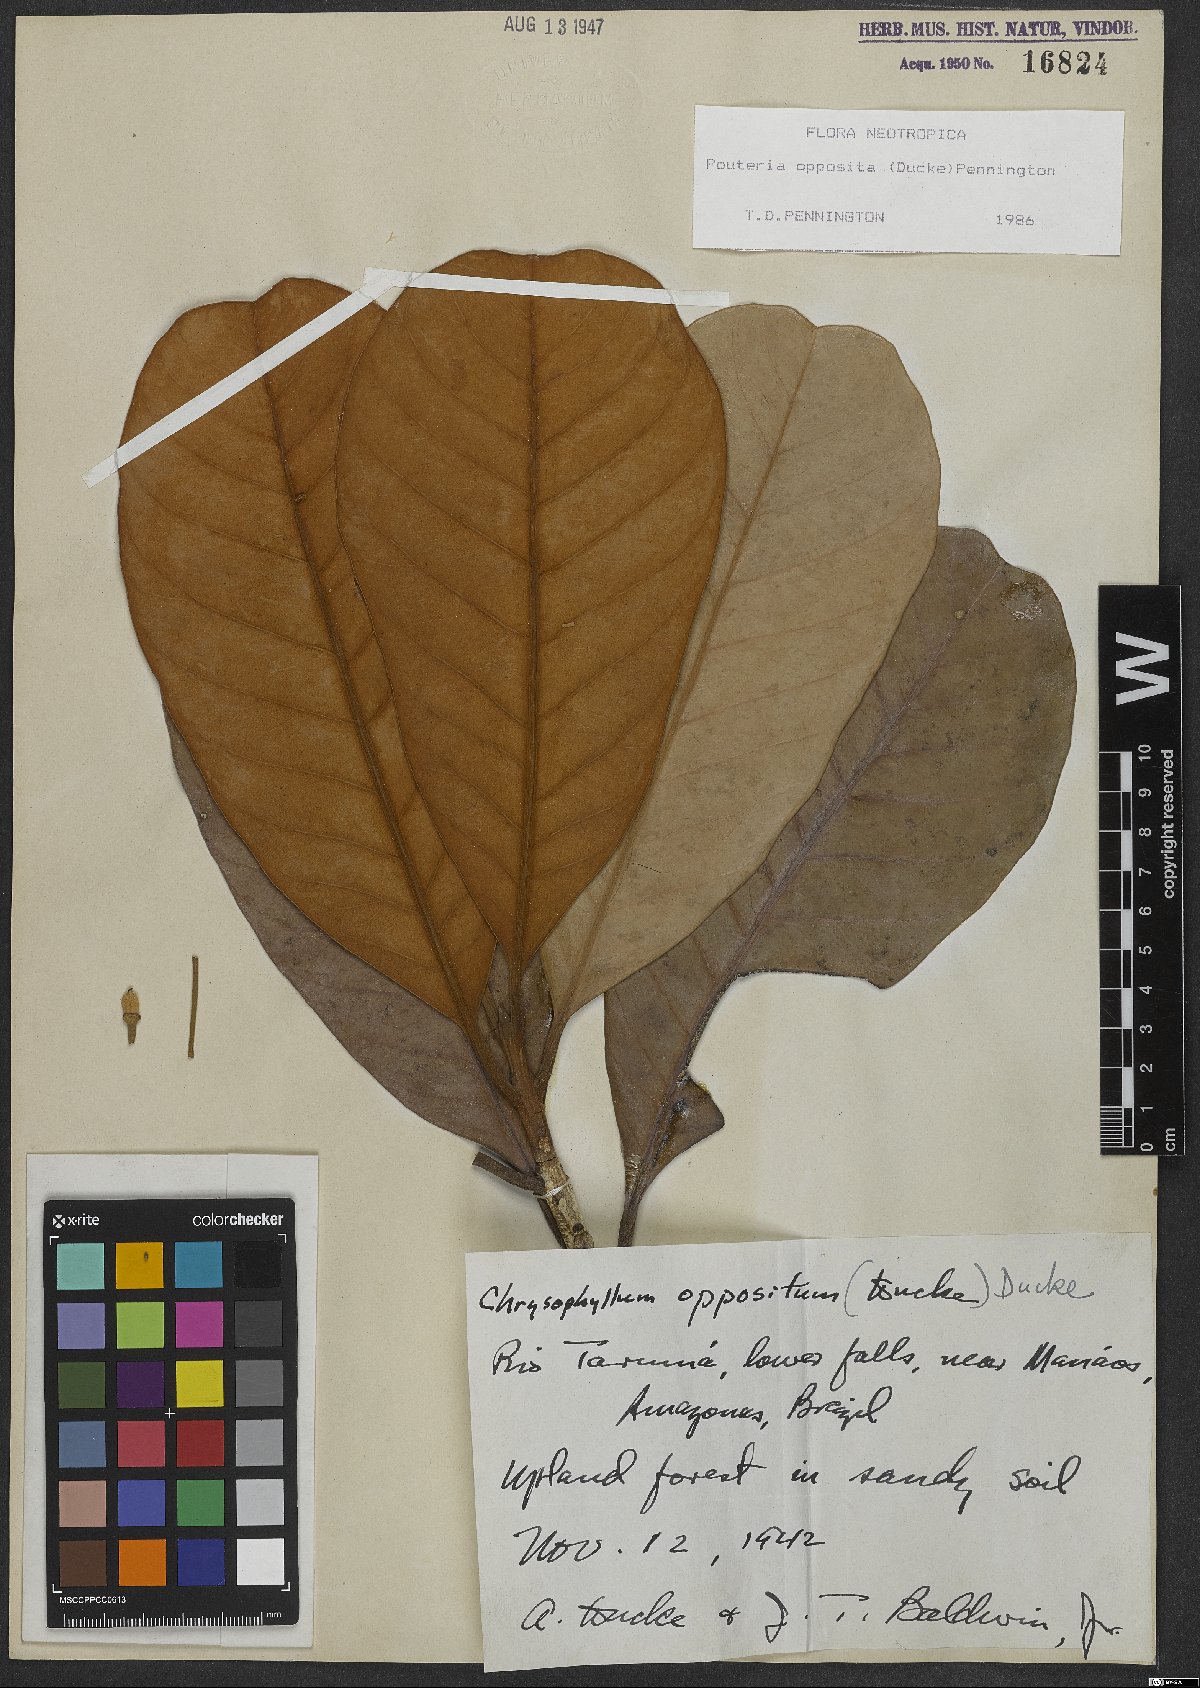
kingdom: Plantae
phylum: Tracheophyta
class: Magnoliopsida
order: Ericales
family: Sapotaceae
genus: Pouteria
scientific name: Pouteria opposita
